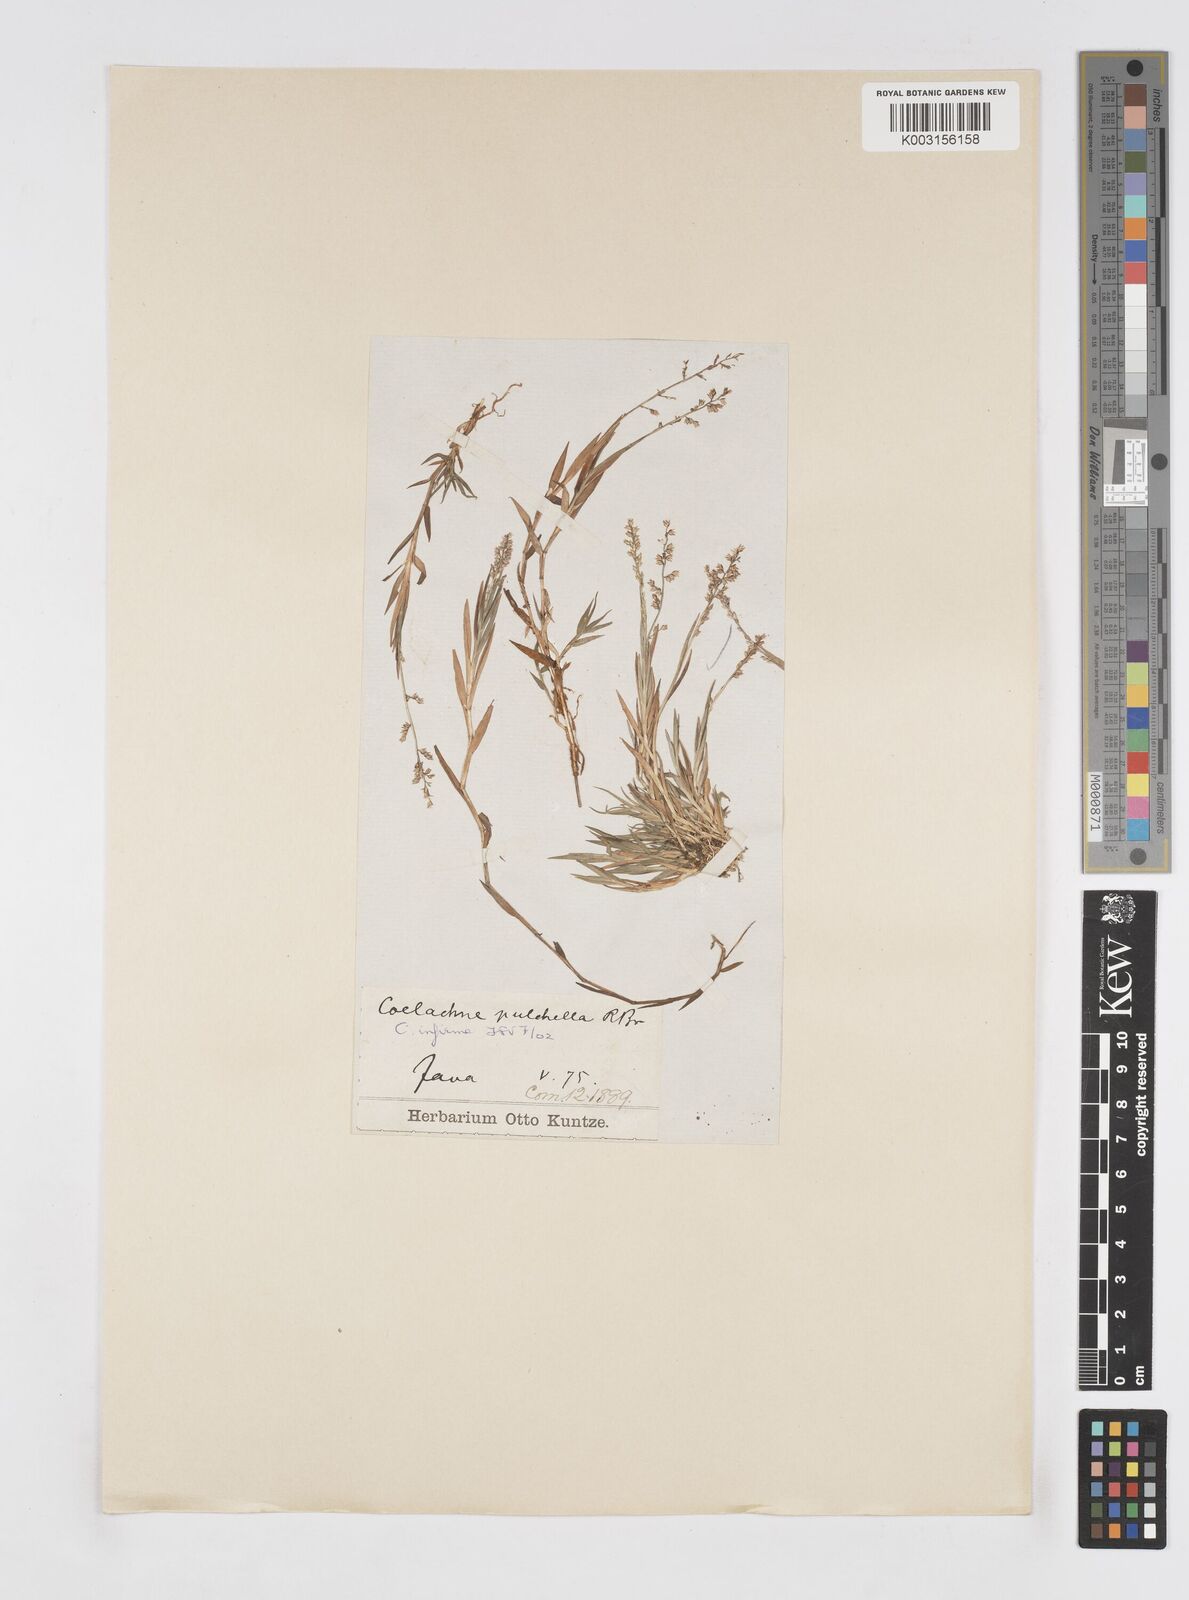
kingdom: Plantae
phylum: Tracheophyta
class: Liliopsida
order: Poales
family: Poaceae
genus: Coelachne
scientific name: Coelachne infirma
